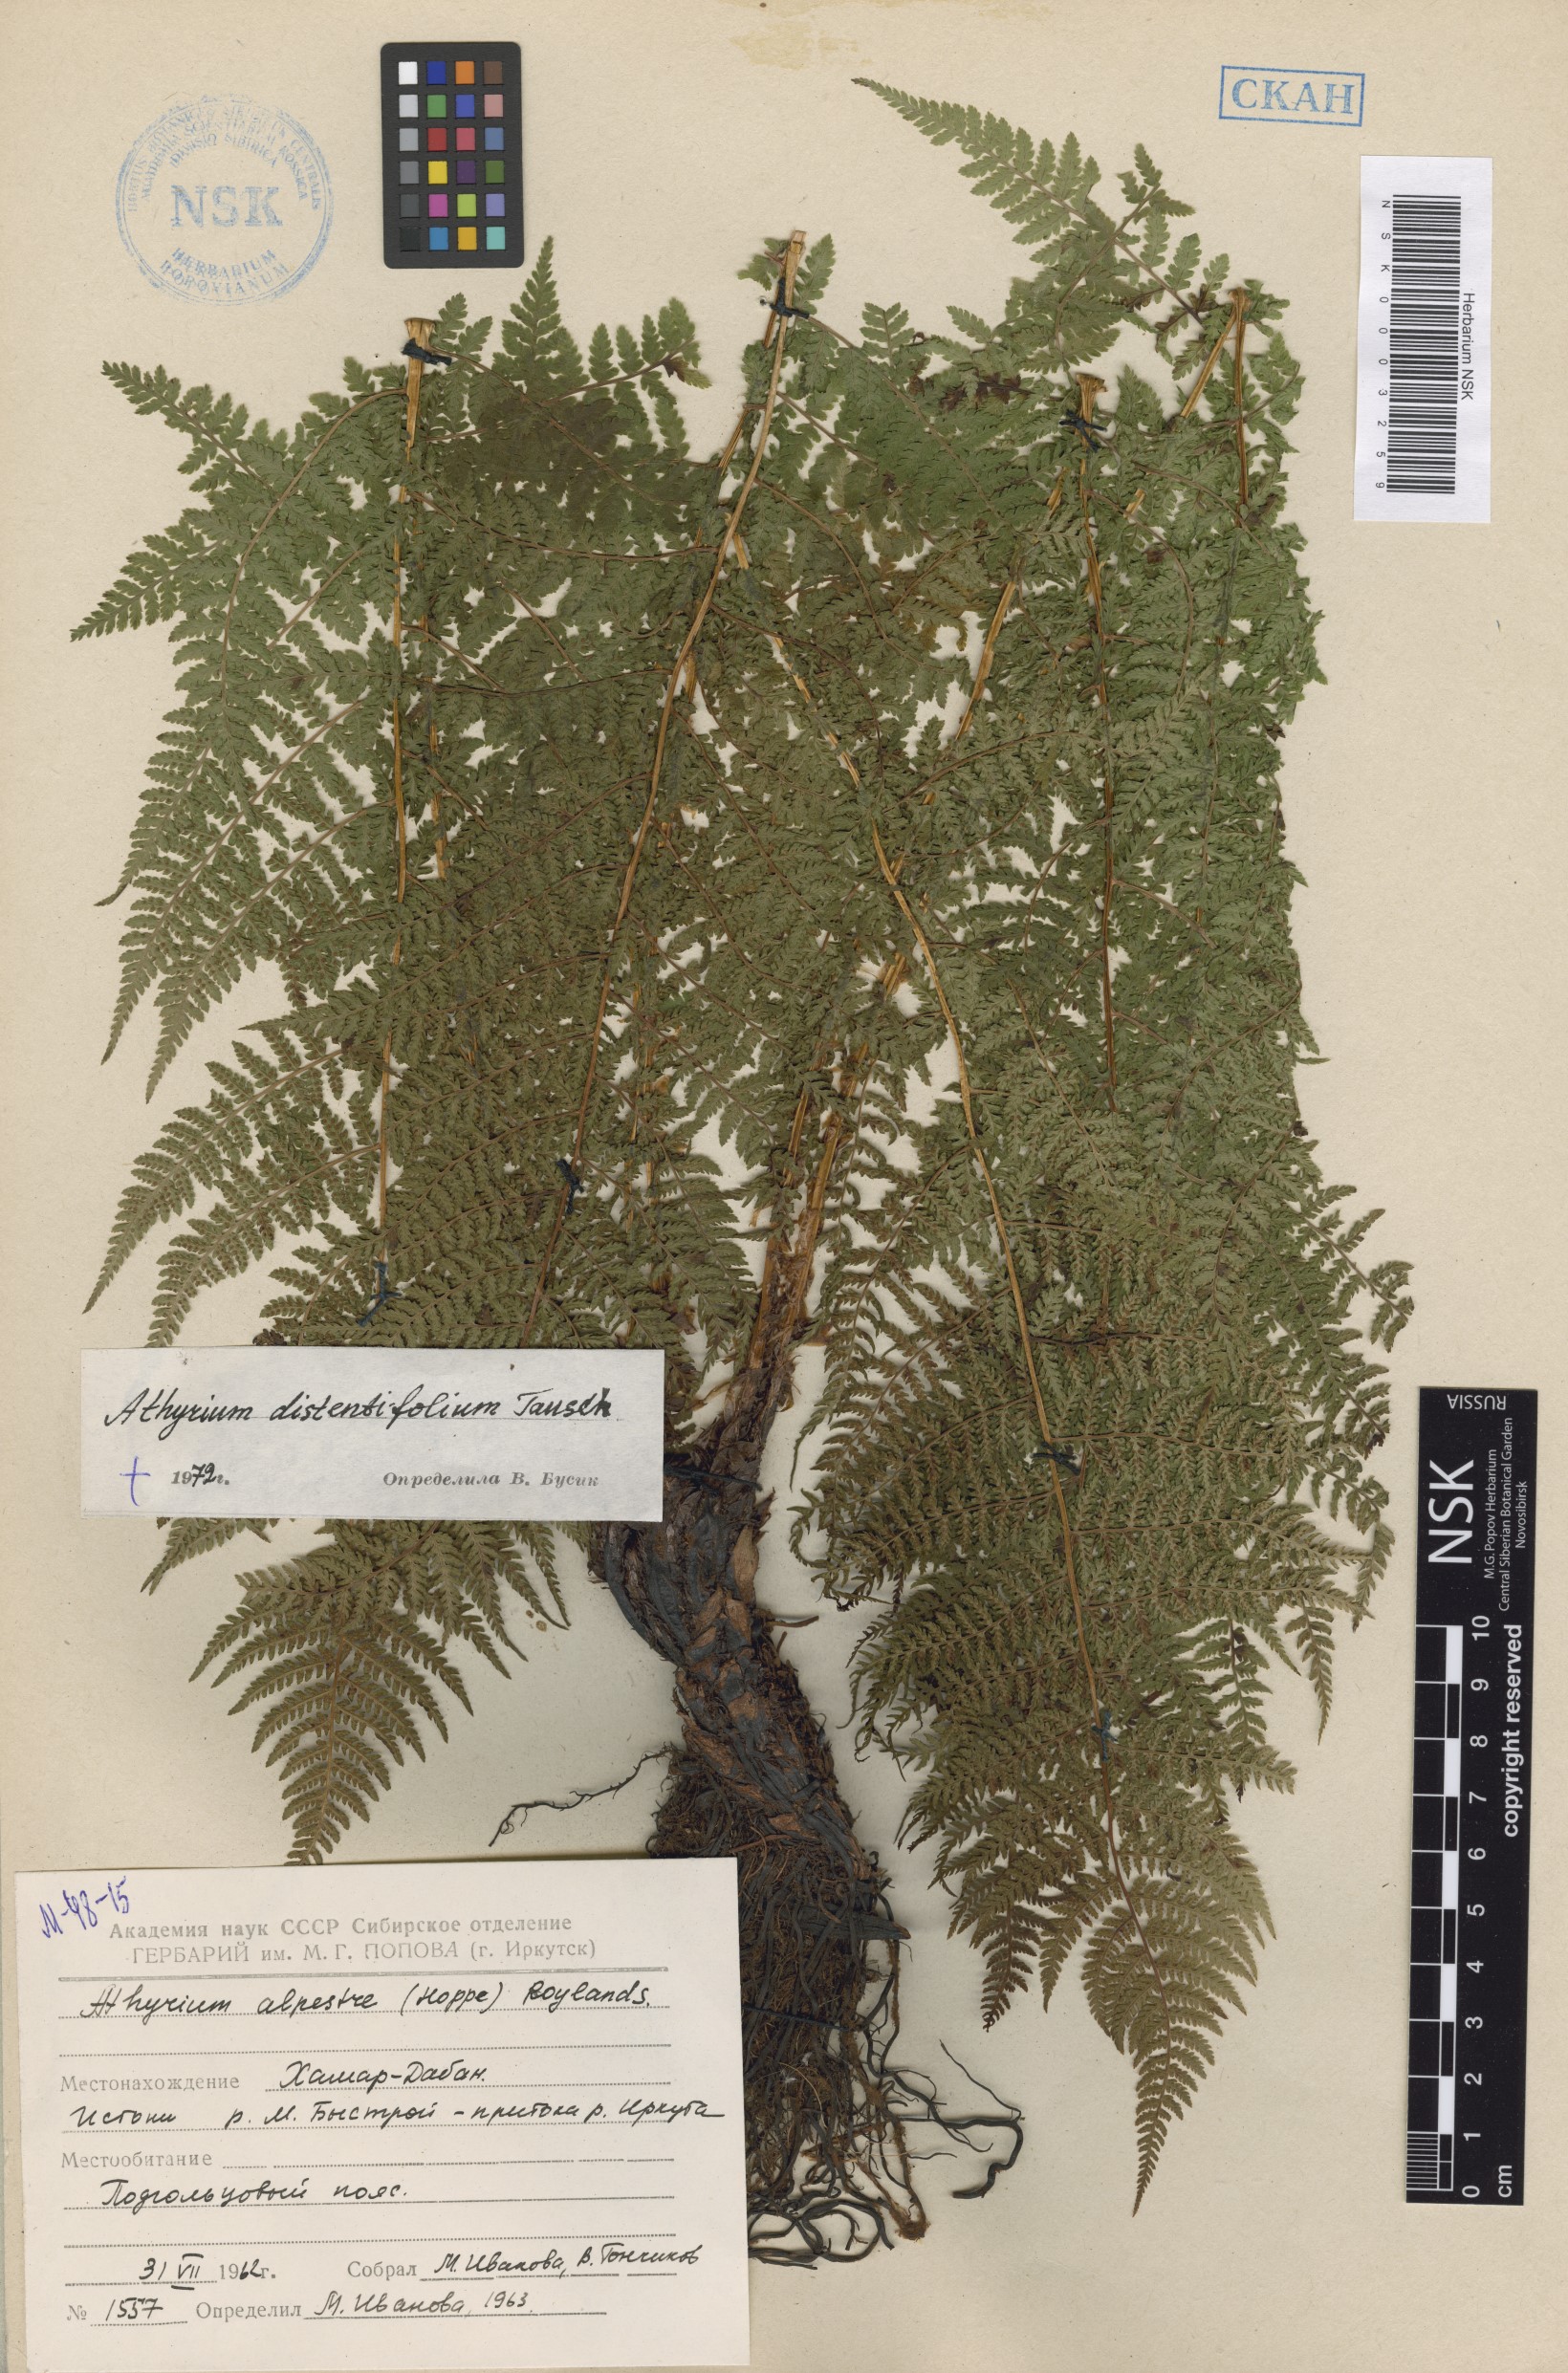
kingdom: Plantae
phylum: Tracheophyta
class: Polypodiopsida
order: Polypodiales
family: Athyriaceae
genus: Pseudathyrium
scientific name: Pseudathyrium alpestre
